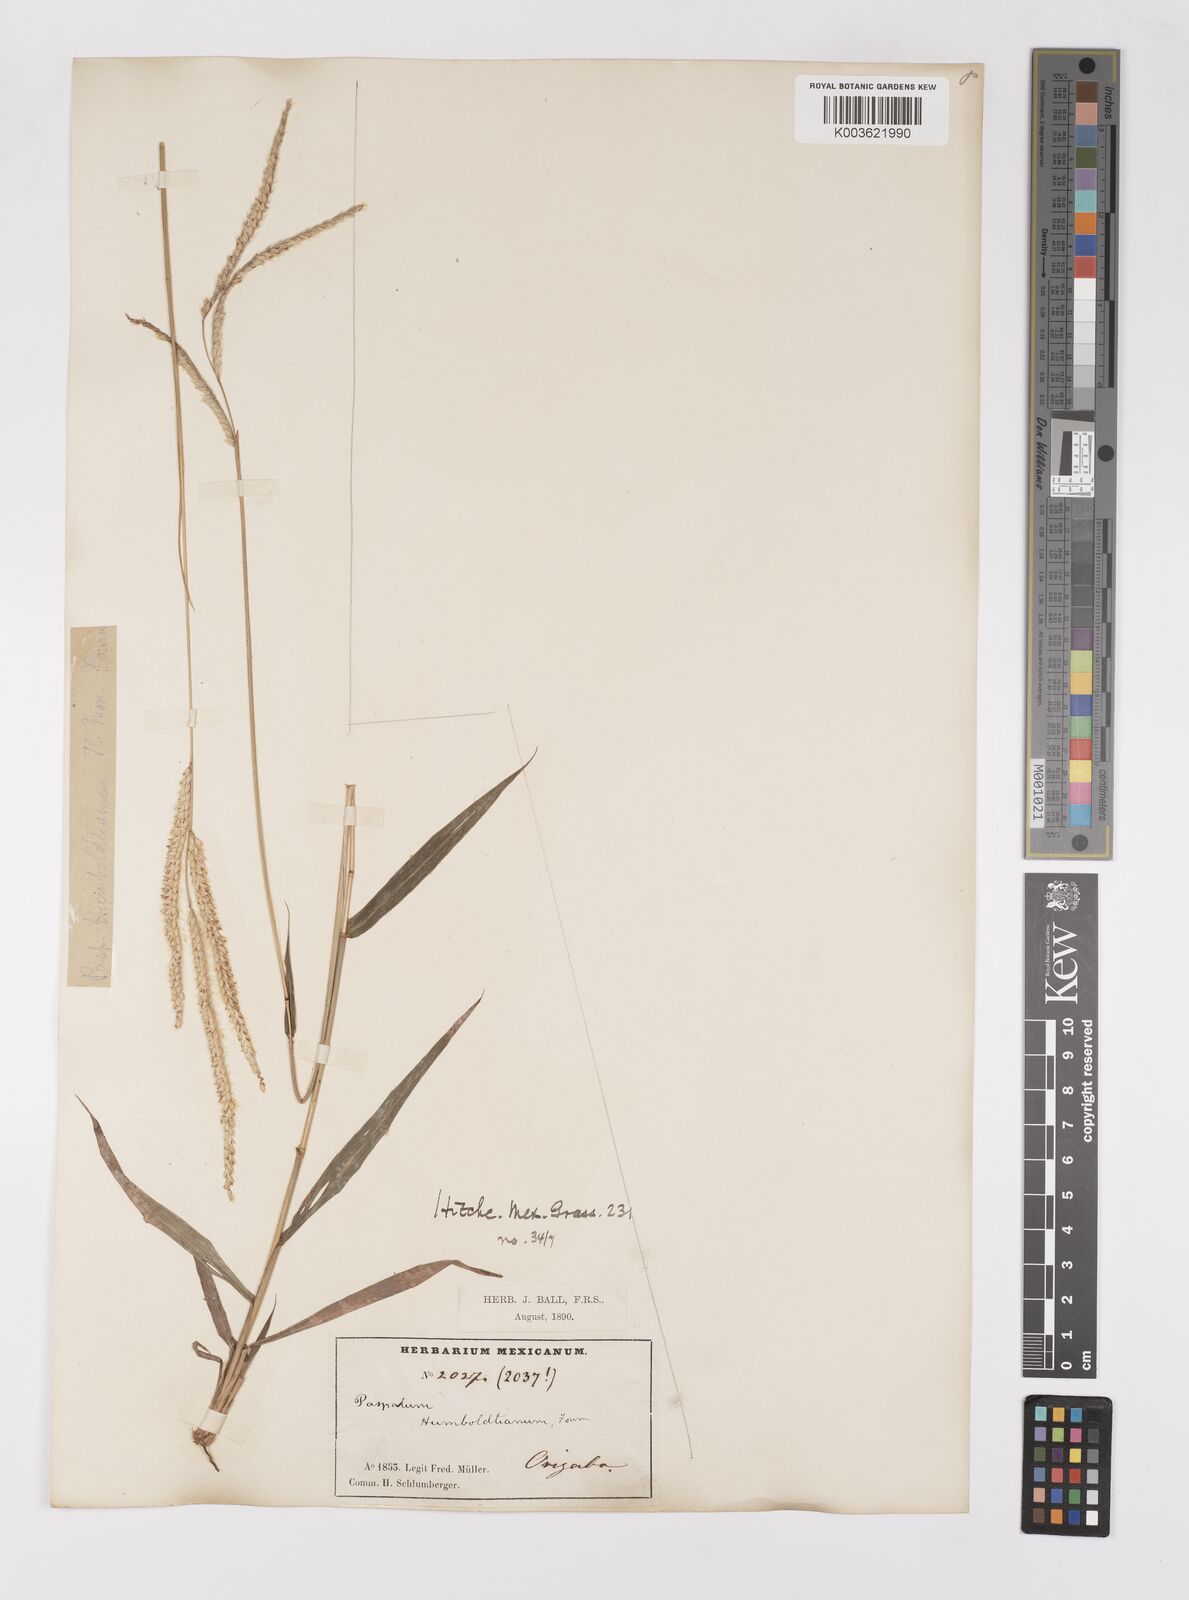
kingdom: Plantae
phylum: Tracheophyta
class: Liliopsida
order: Poales
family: Poaceae
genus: Paspalum
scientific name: Paspalum humboldtianum
